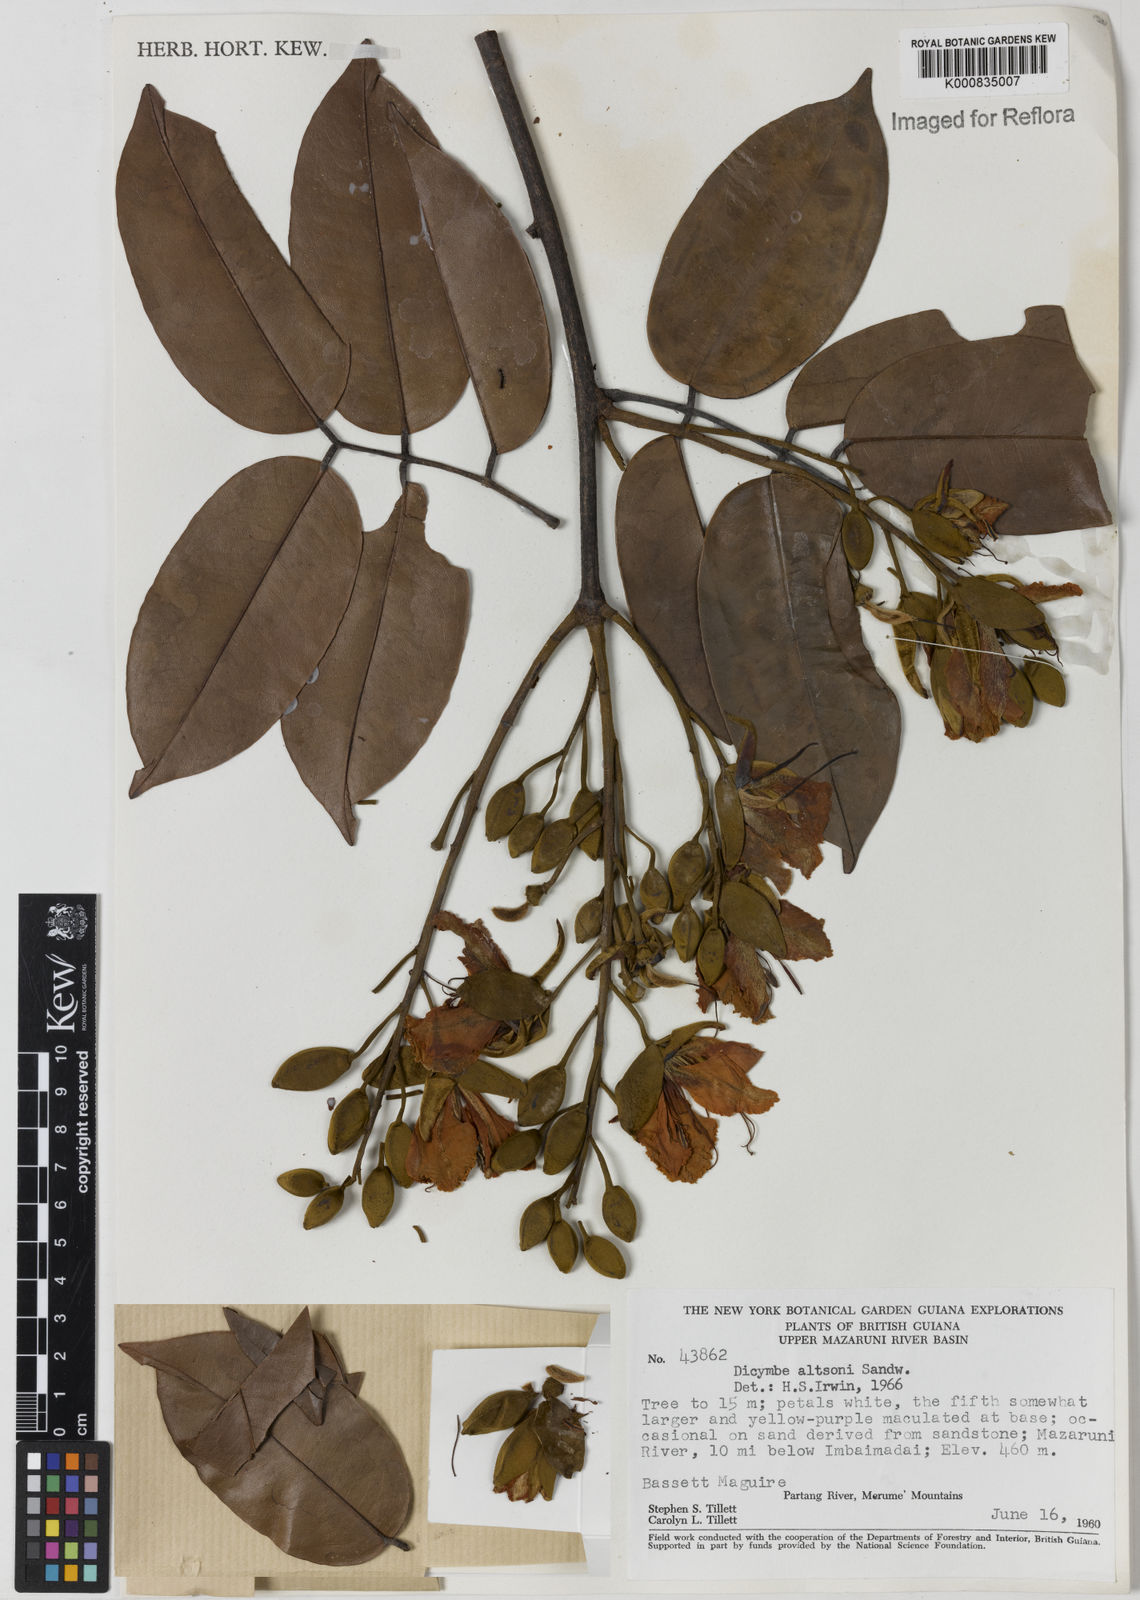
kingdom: Plantae
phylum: Tracheophyta
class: Magnoliopsida
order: Fabales
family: Fabaceae
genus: Dicymbe
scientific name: Dicymbe altsonii
